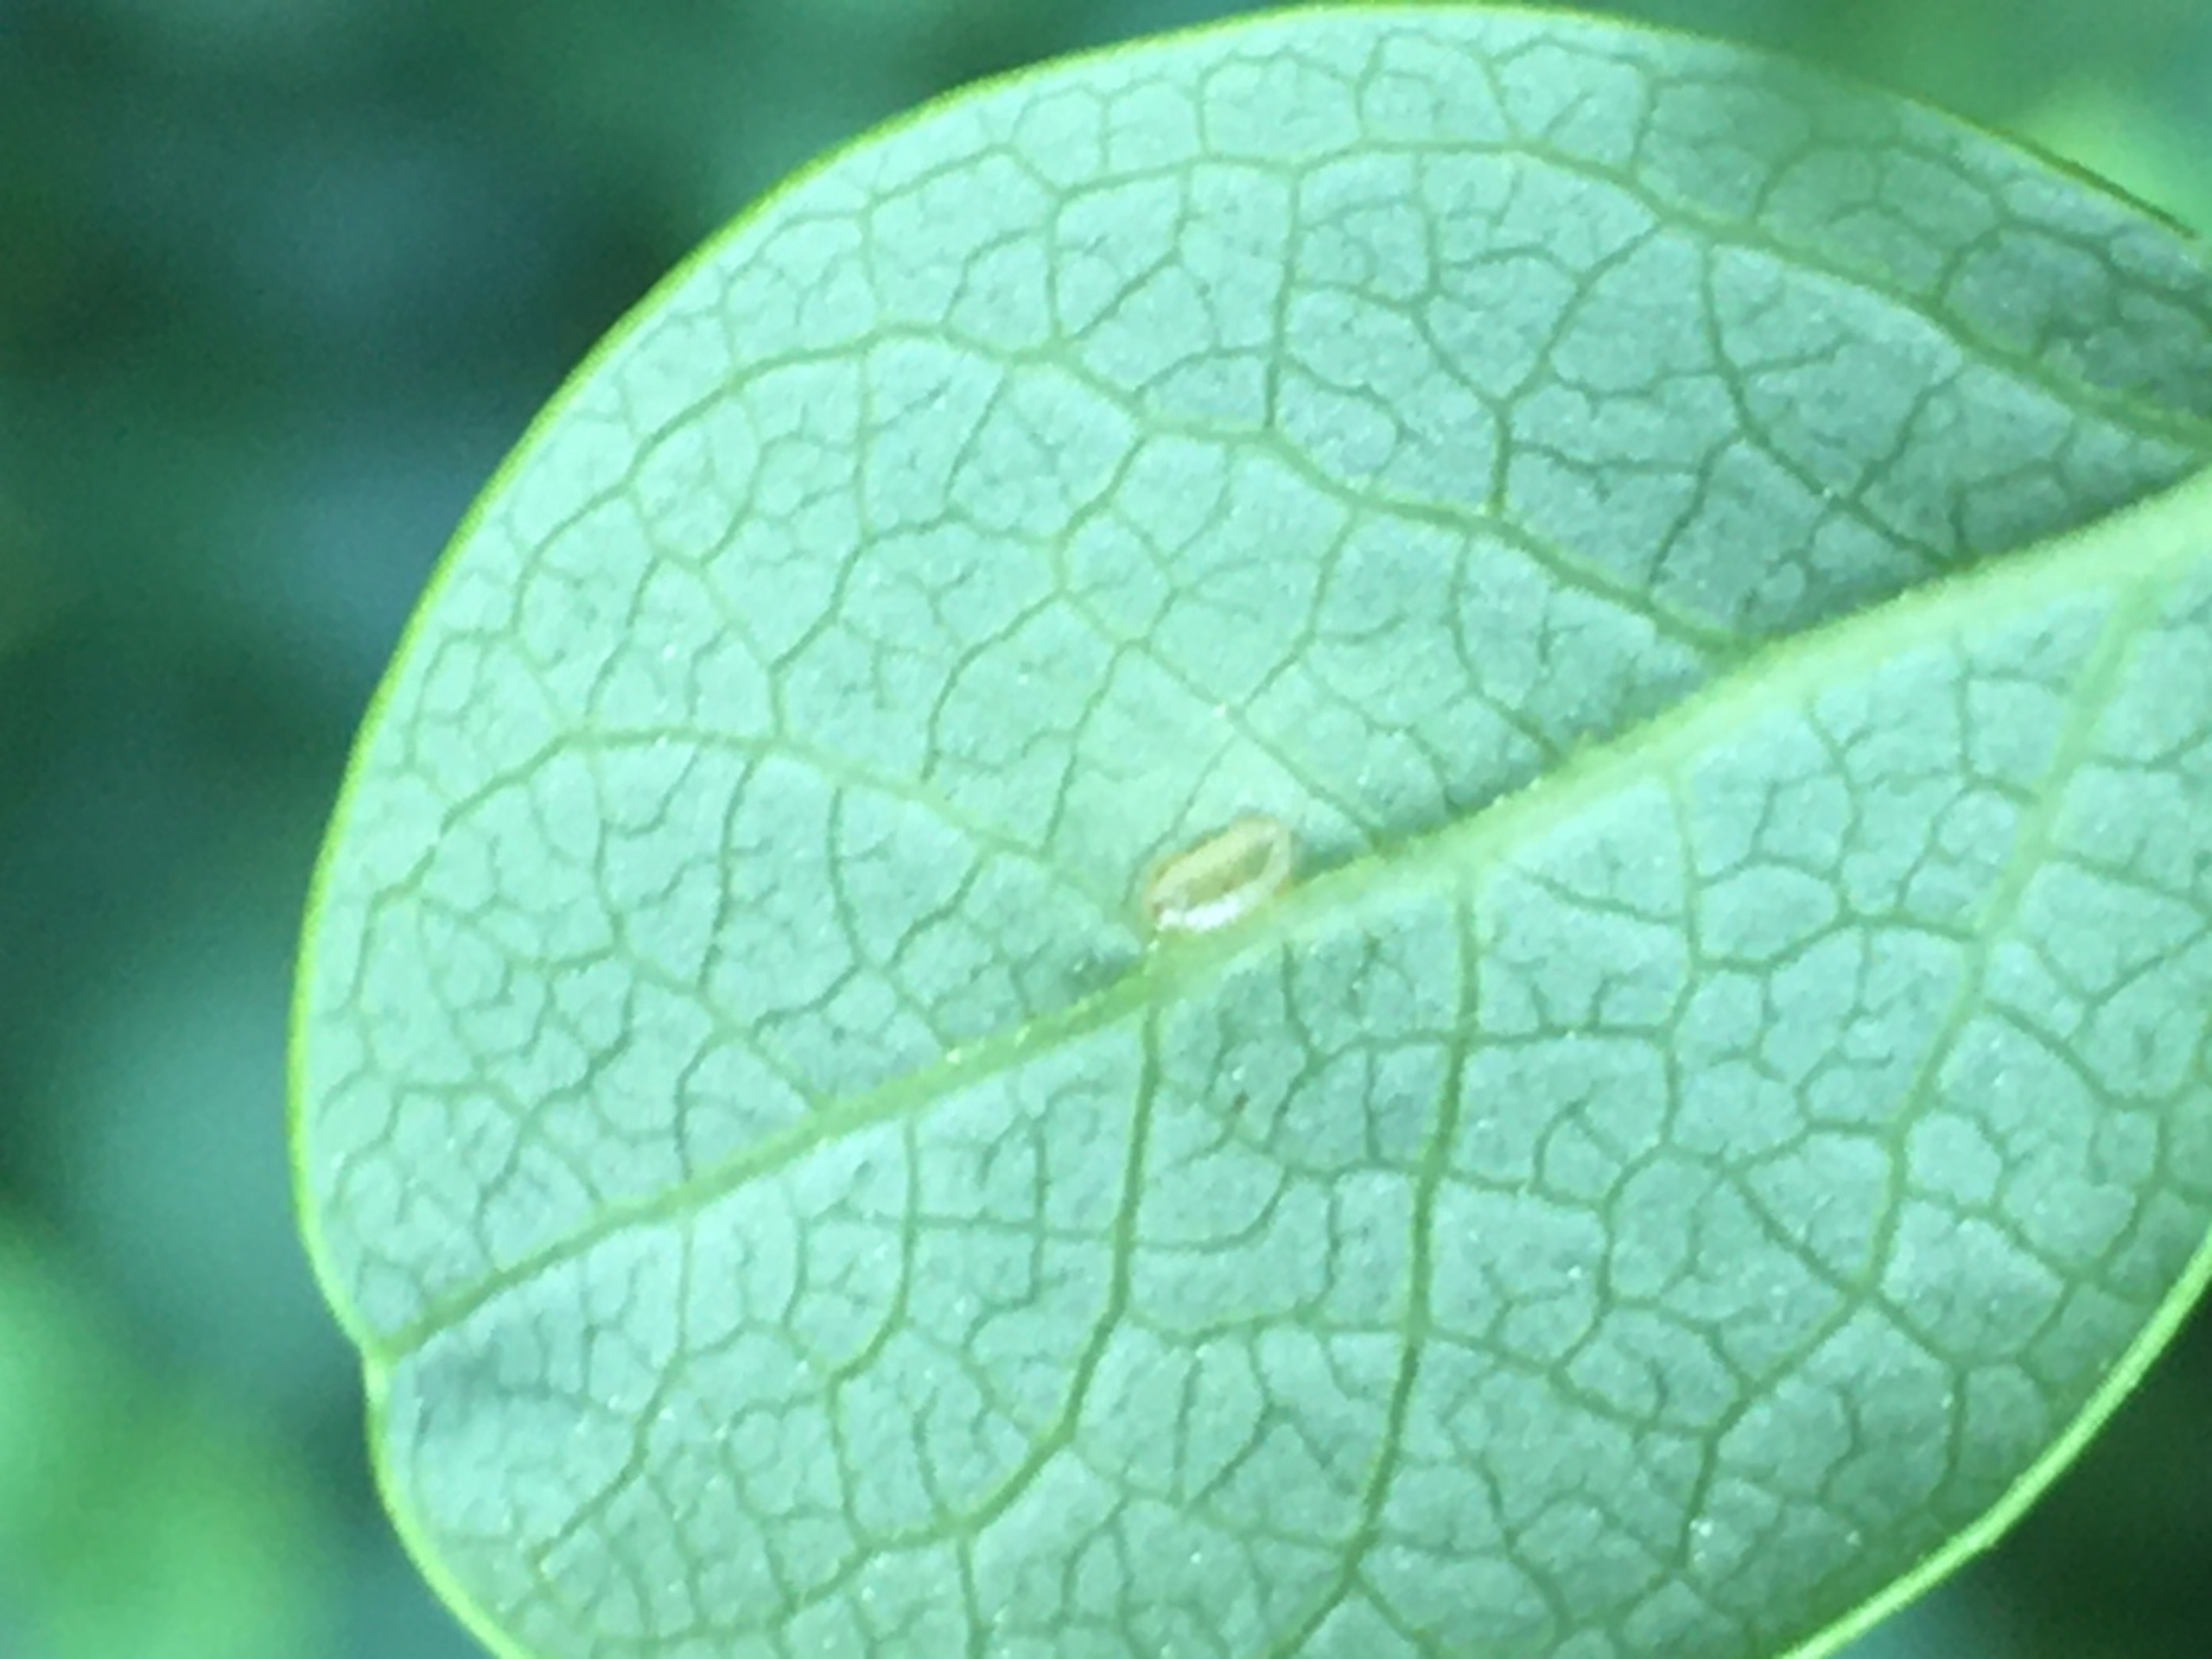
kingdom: Animalia
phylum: Arthropoda
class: Insecta
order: Diptera
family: Cecidomyiidae
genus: Contarinia
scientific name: Contarinia
